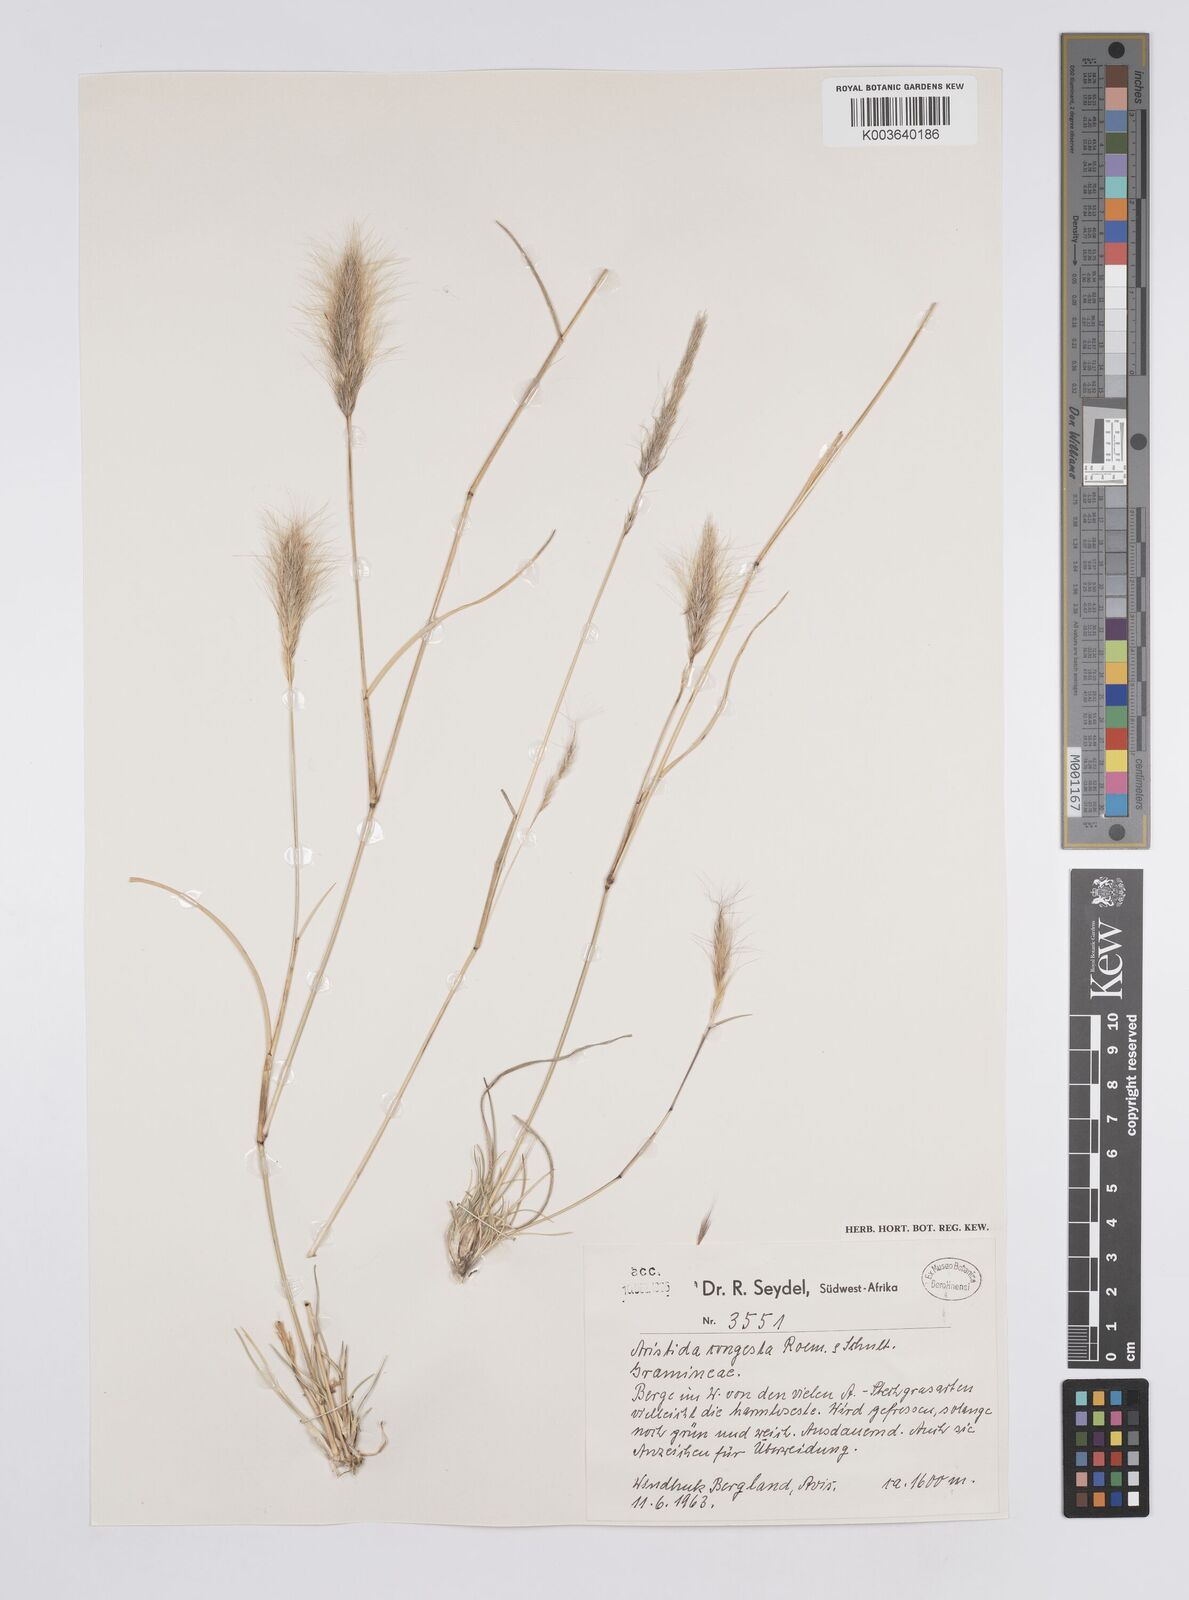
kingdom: Plantae
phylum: Tracheophyta
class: Liliopsida
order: Poales
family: Poaceae
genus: Aristida
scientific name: Aristida congesta
